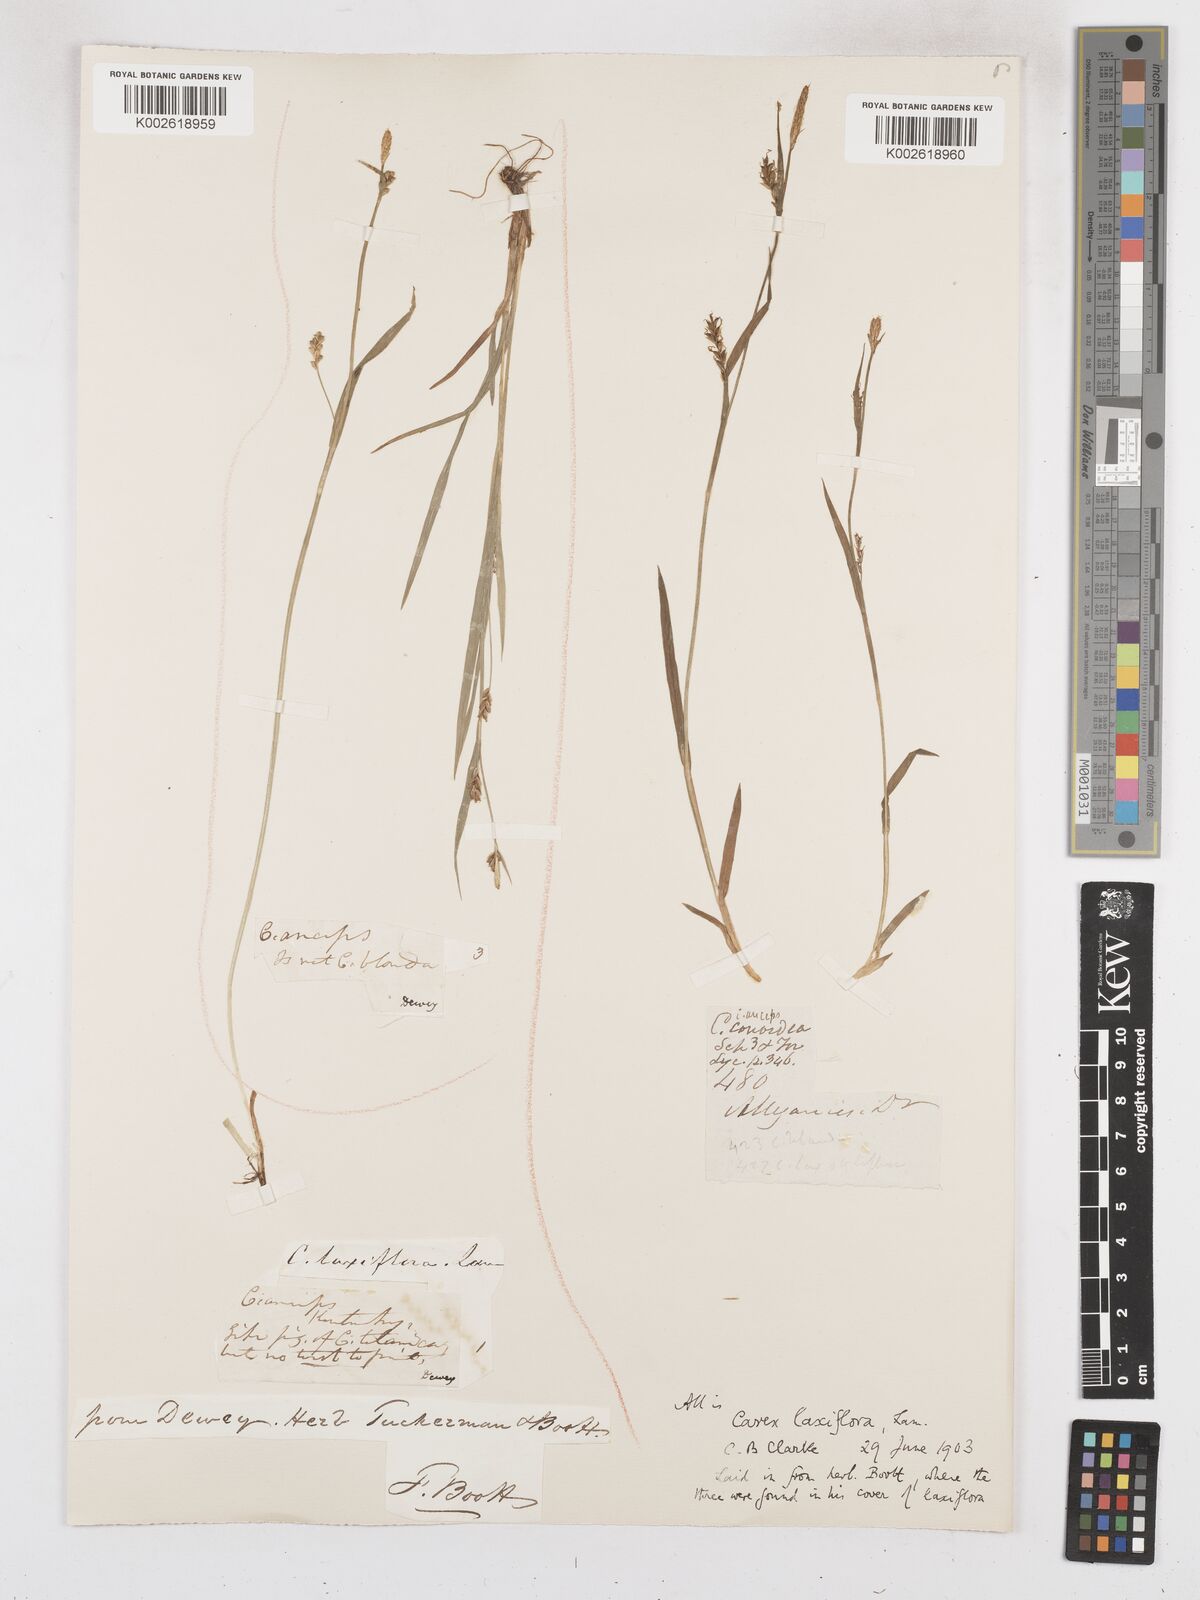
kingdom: Plantae
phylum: Tracheophyta
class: Liliopsida
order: Poales
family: Cyperaceae
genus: Carex
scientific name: Carex laxiflora
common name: Beech wood sedge
